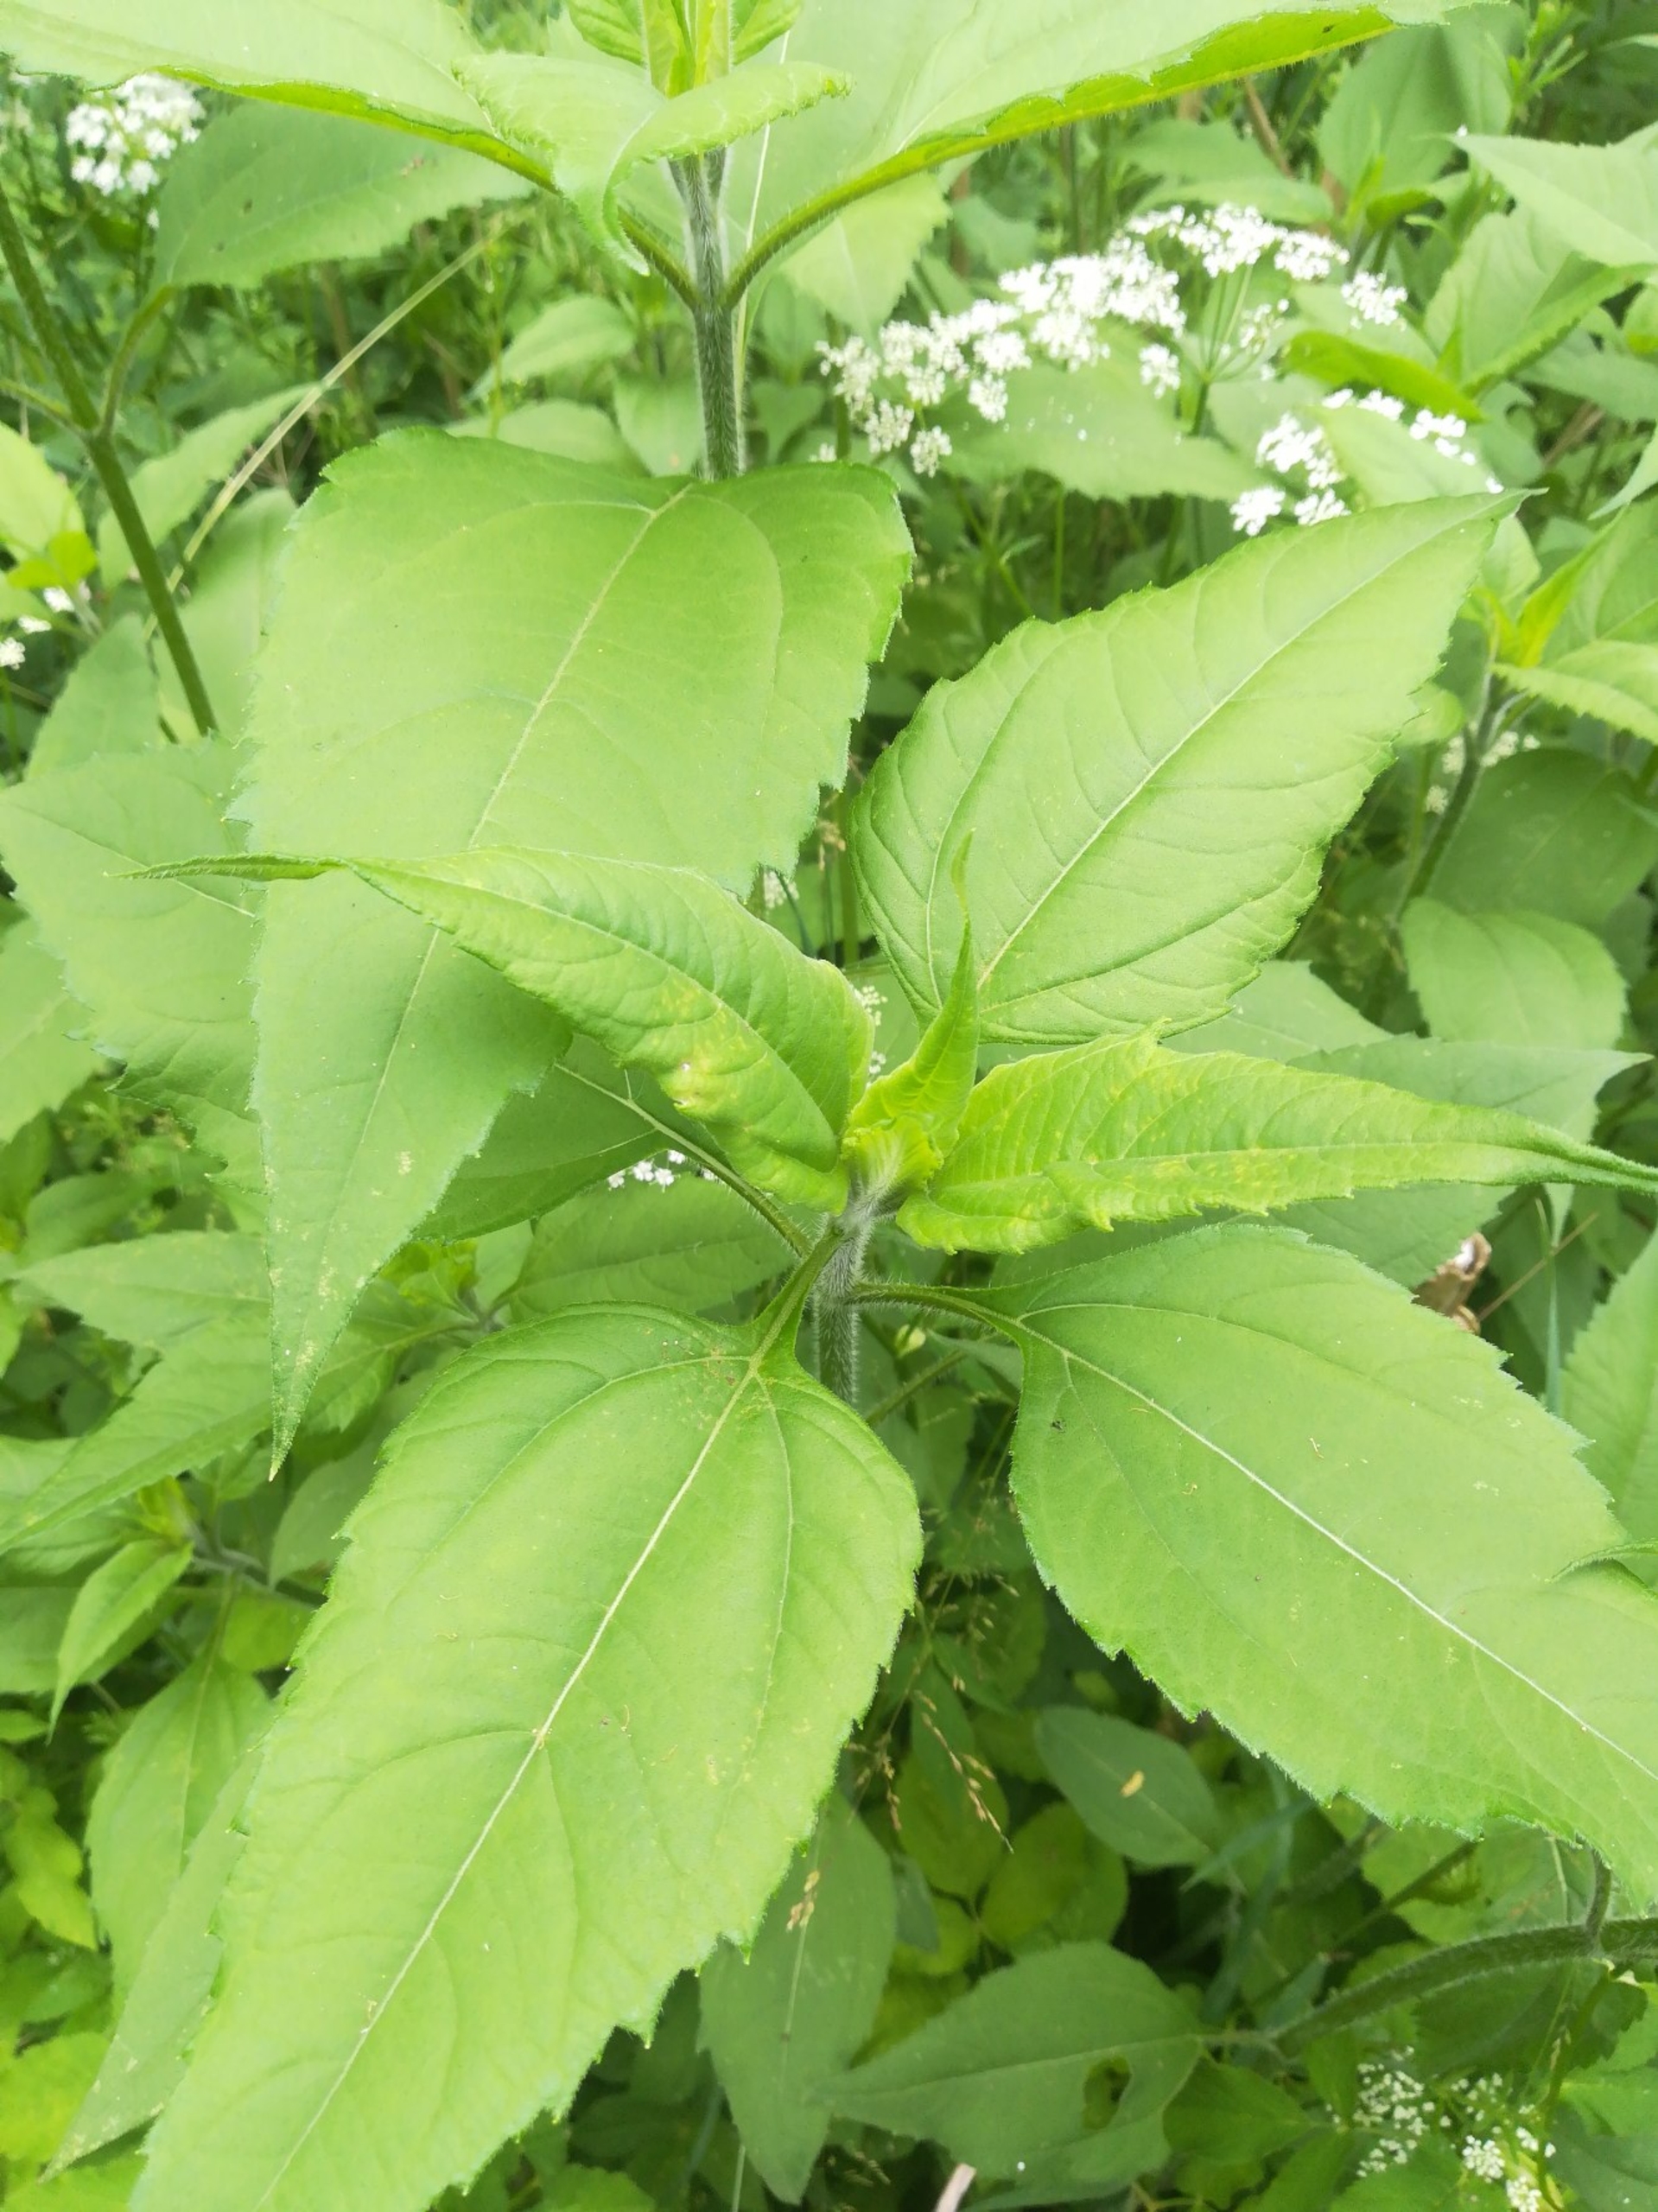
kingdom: Plantae
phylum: Tracheophyta
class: Magnoliopsida
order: Asterales
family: Asteraceae
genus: Helianthus
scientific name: Helianthus tuberosus
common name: Jordskok
